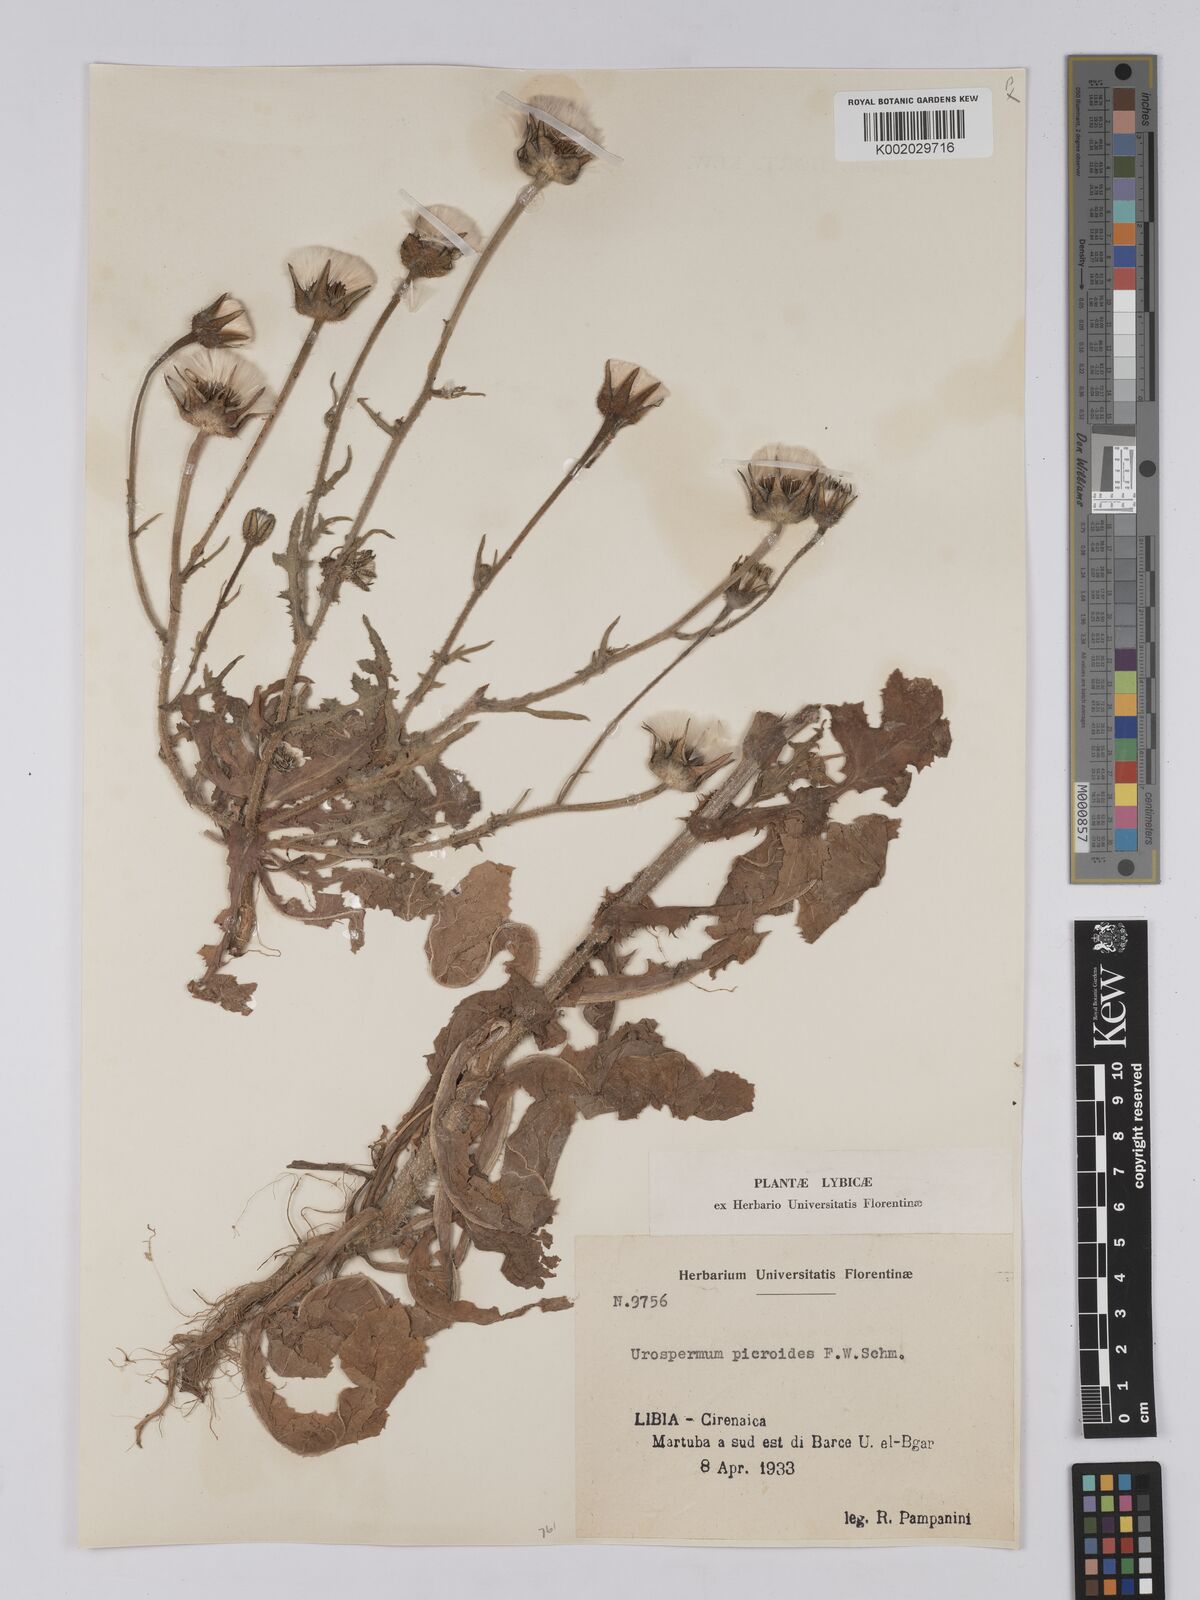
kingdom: Plantae
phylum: Tracheophyta
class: Magnoliopsida
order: Asterales
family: Asteraceae
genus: Urospermum
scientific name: Urospermum picroides
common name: False hawkbit
